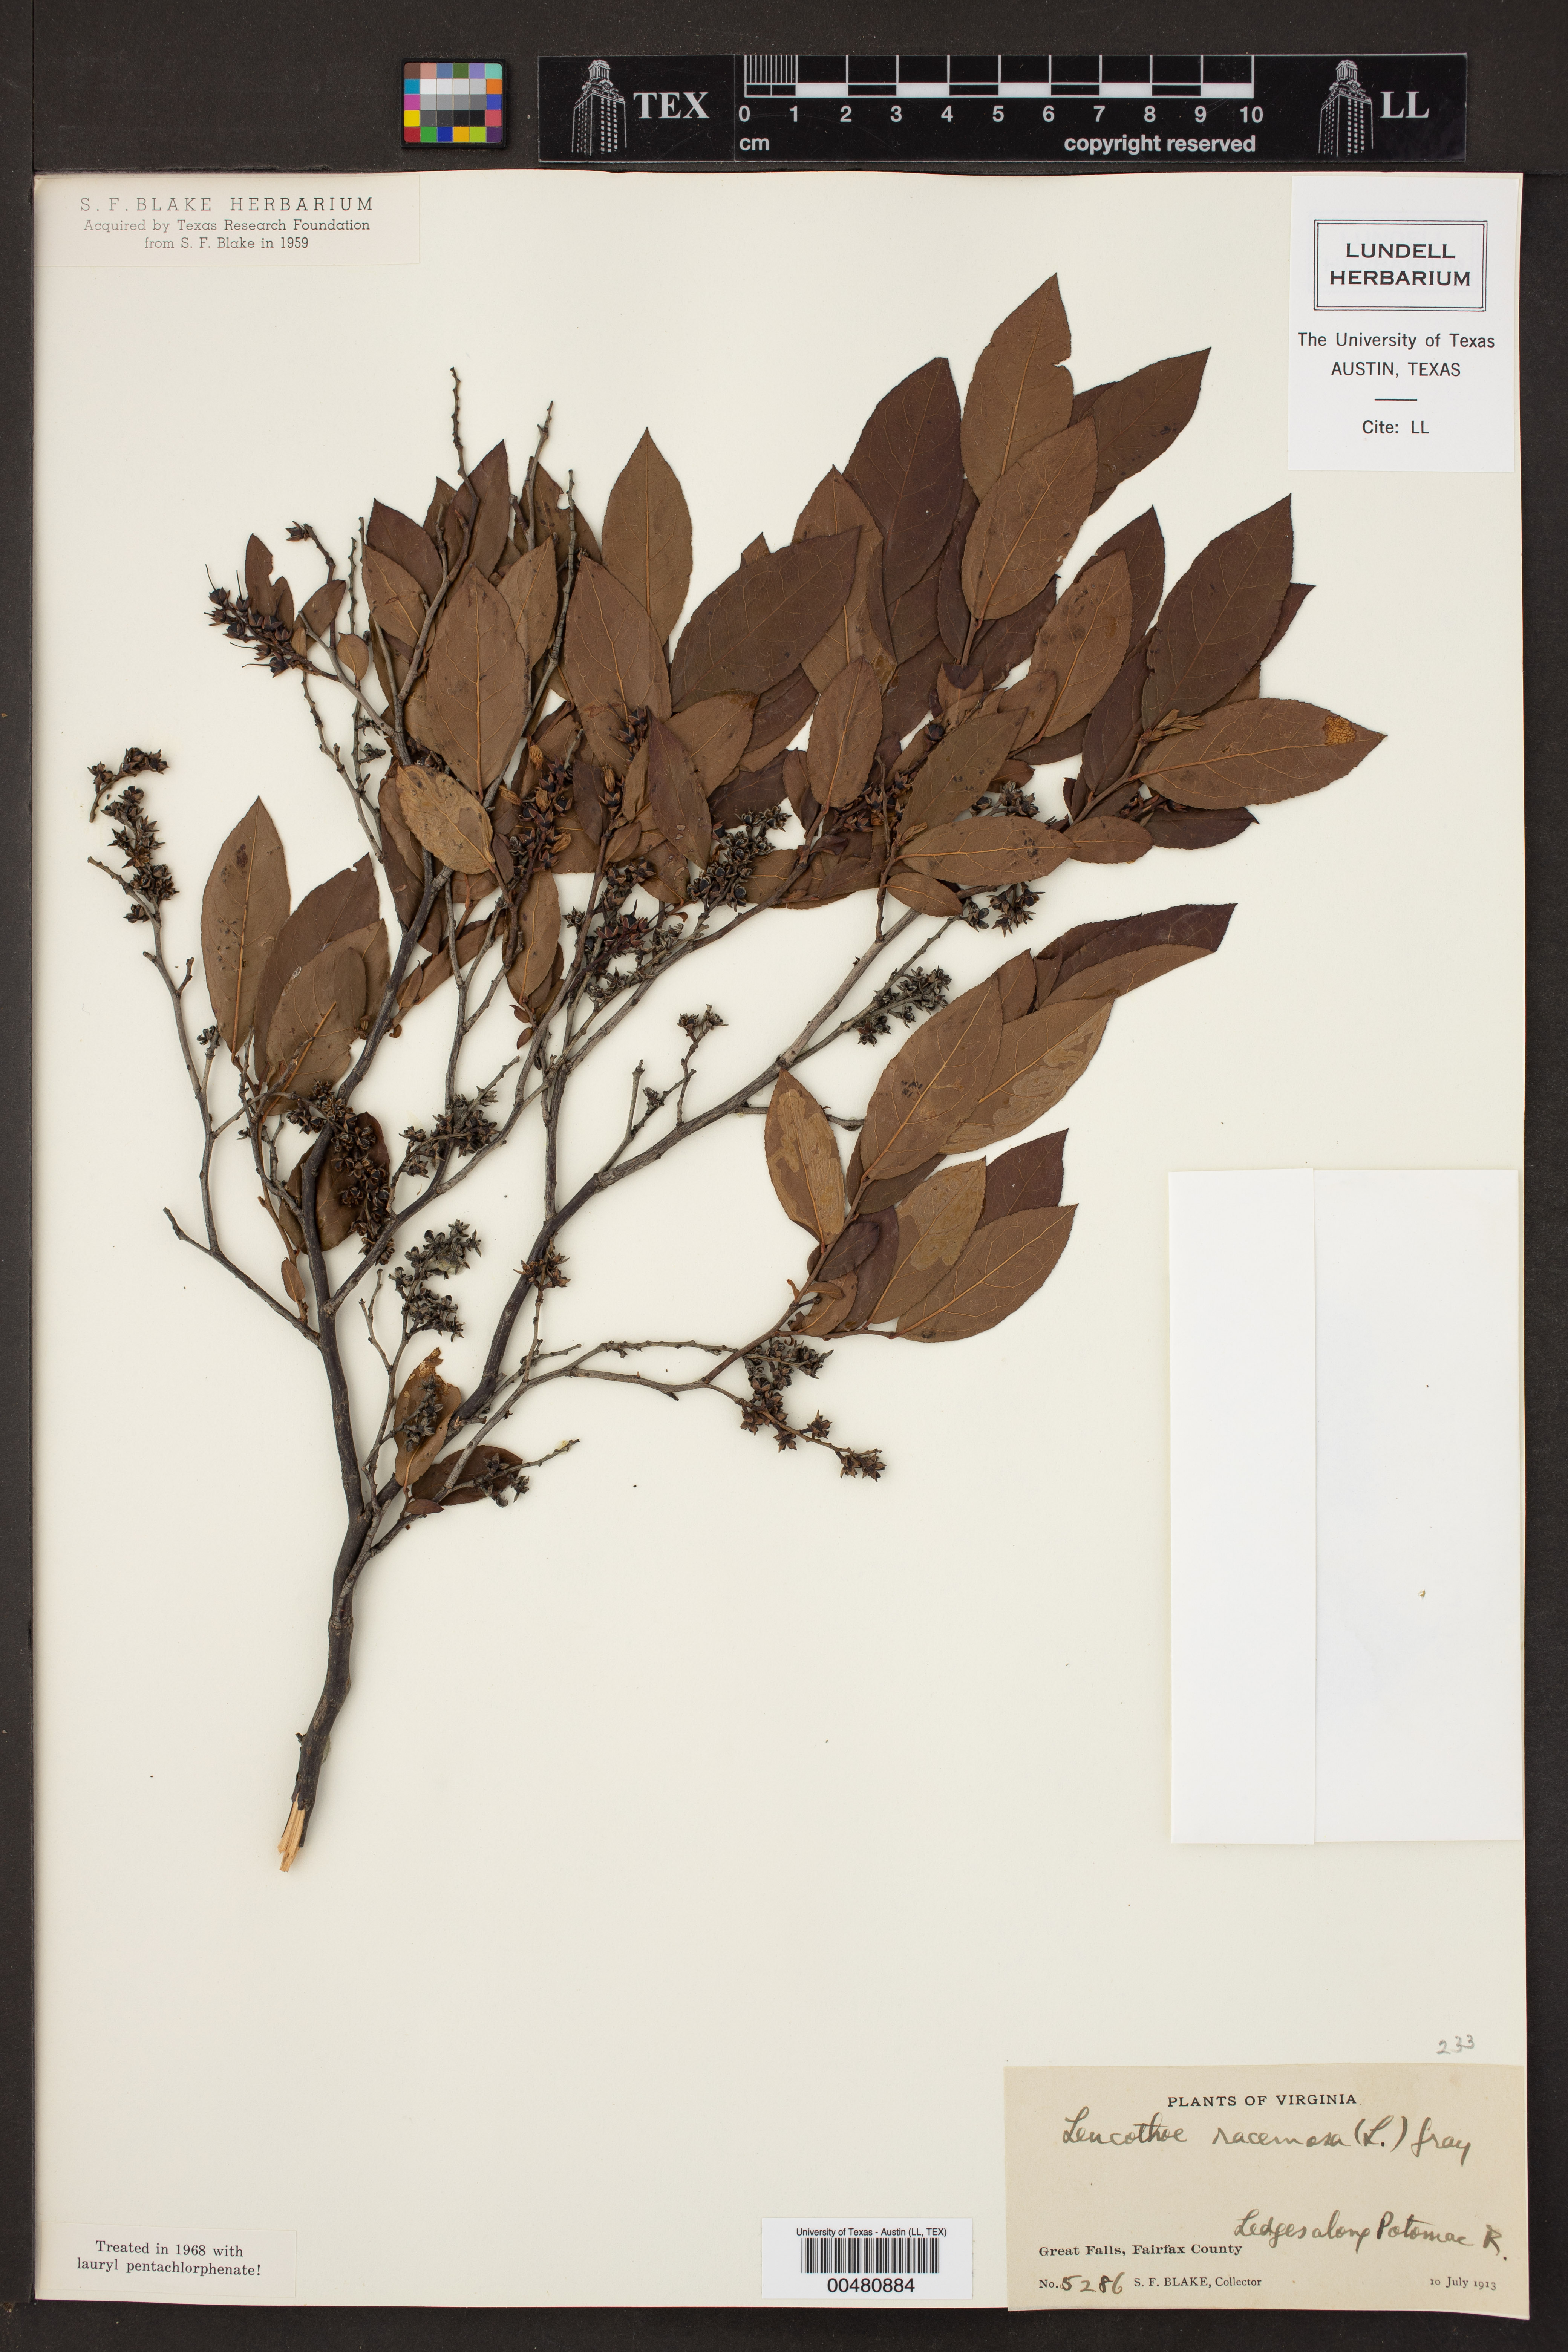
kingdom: Plantae
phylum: Tracheophyta
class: Magnoliopsida
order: Ericales
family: Ericaceae
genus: Eubotrys
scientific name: Eubotrys racemosa
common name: Fetterbush
